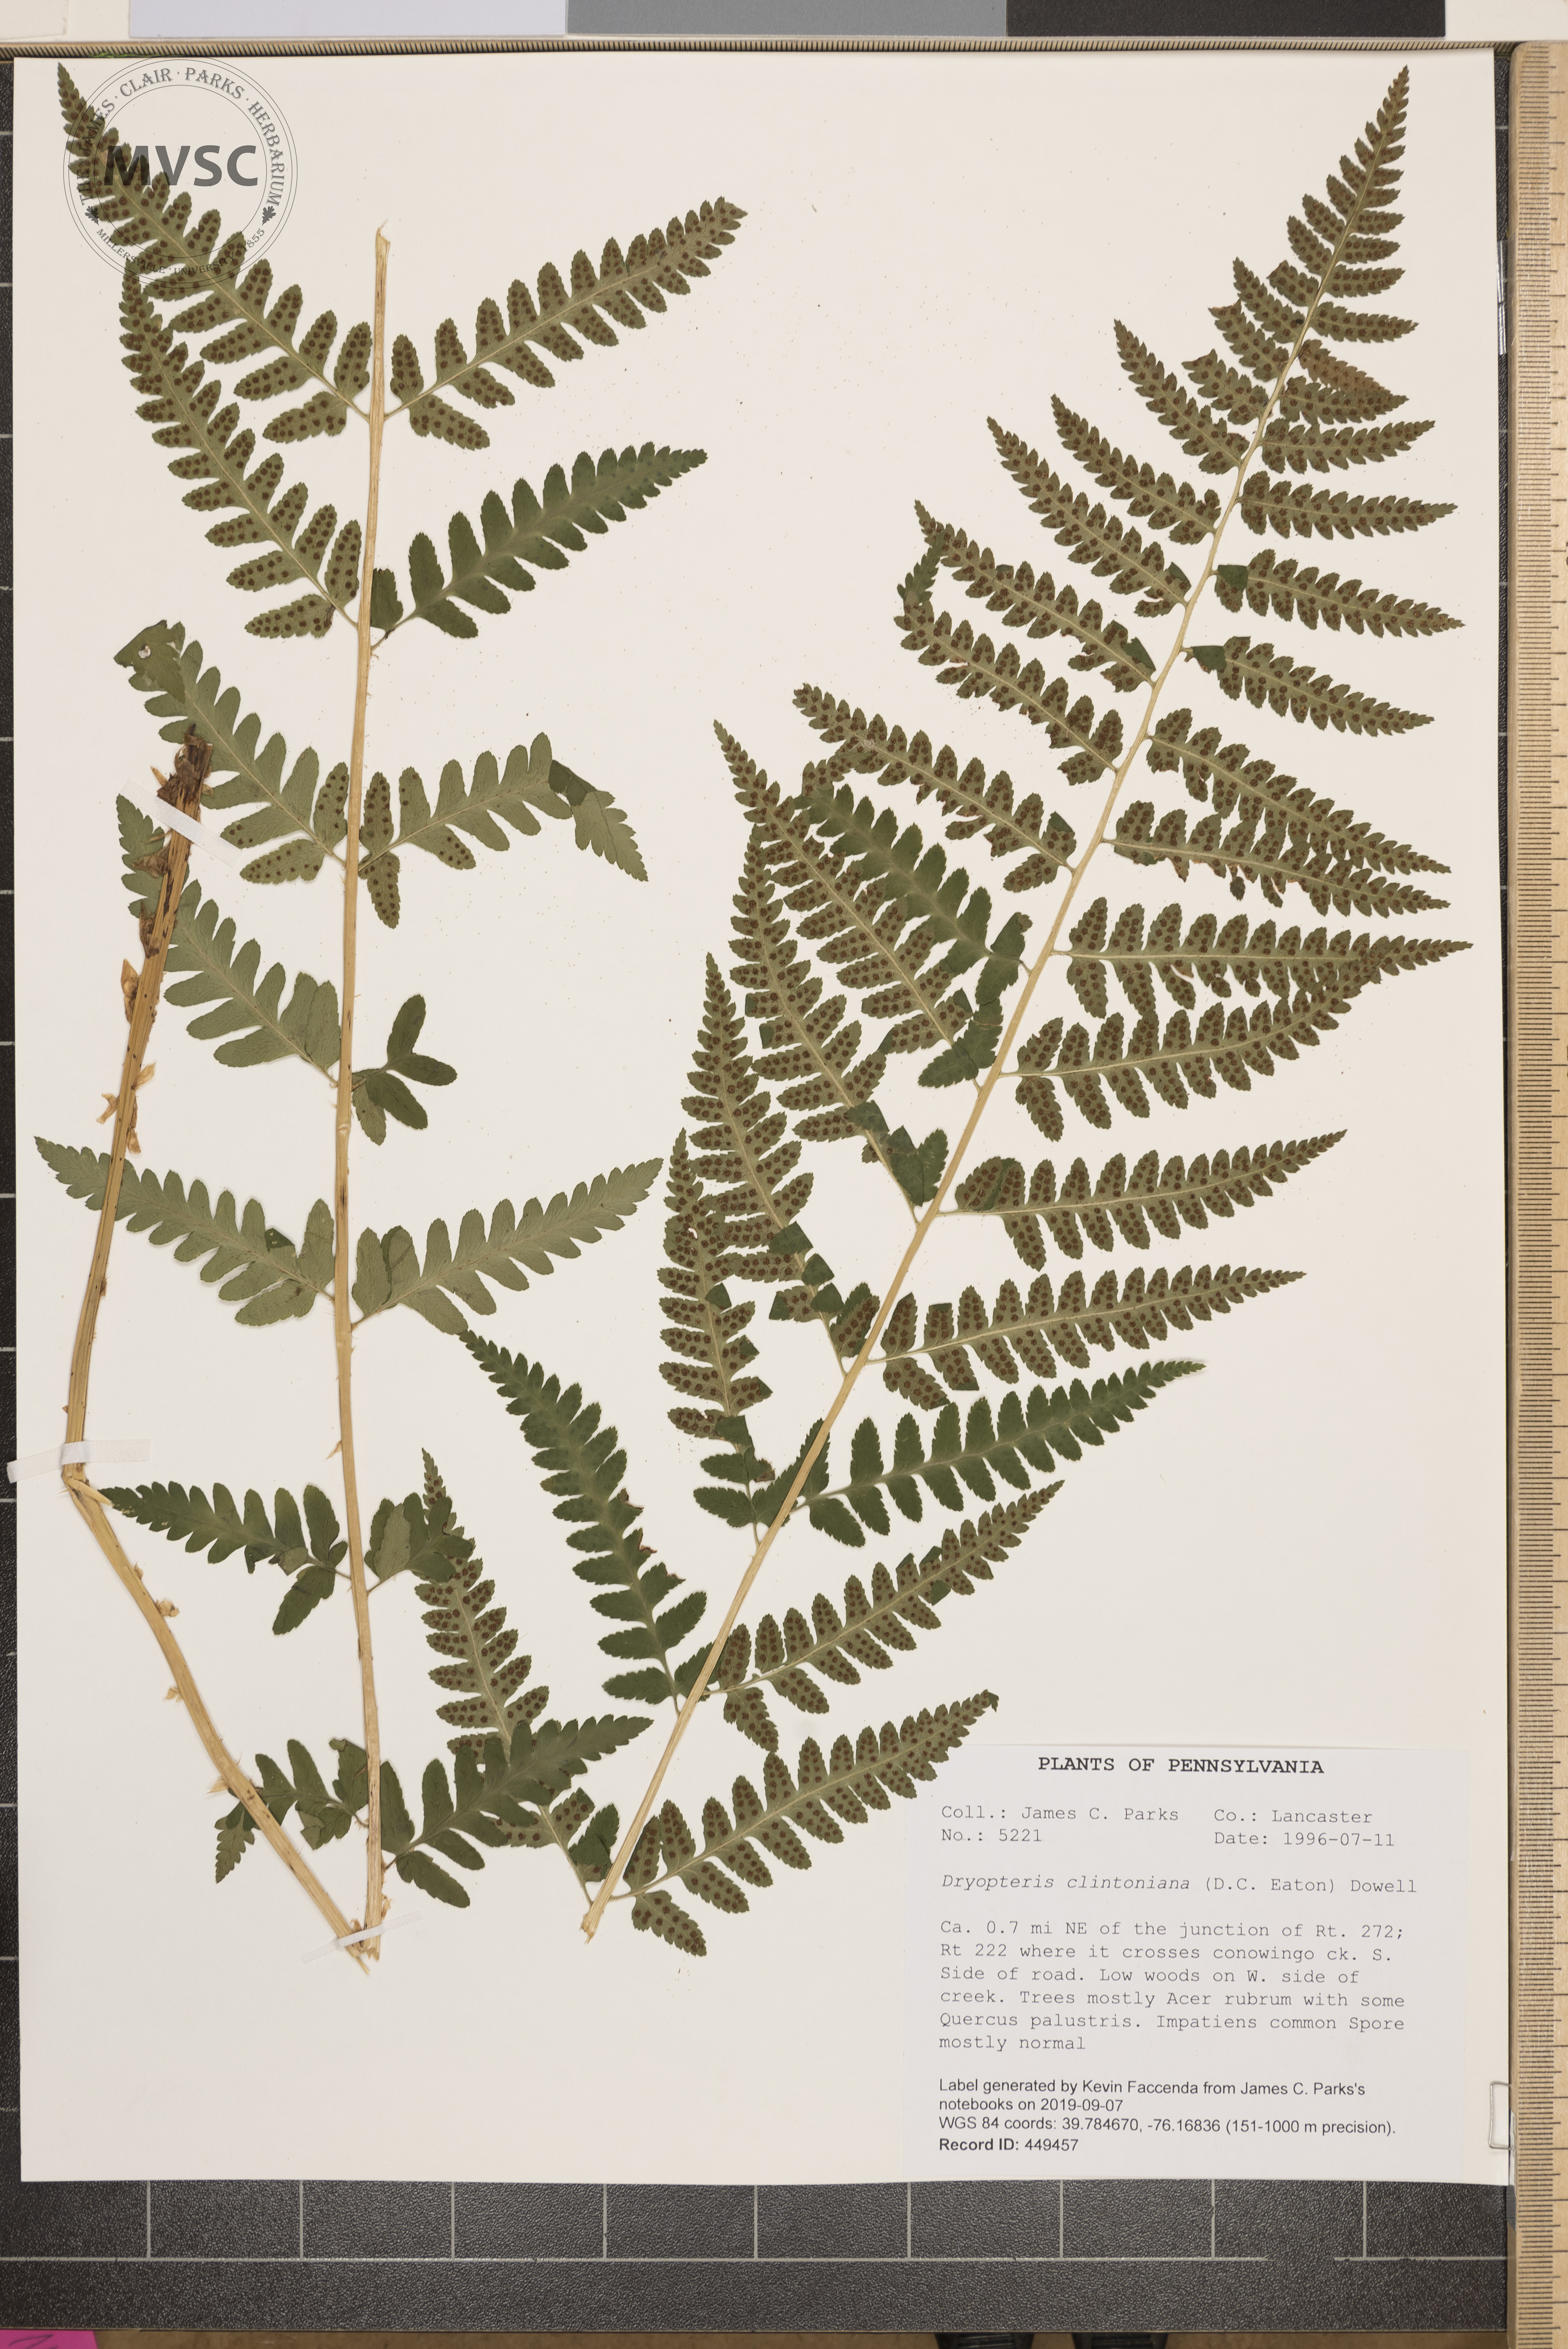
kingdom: Plantae
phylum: Tracheophyta
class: Polypodiopsida
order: Polypodiales
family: Dryopteridaceae
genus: Dryopteris
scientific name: Dryopteris clintoniana
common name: Clinton's wood fern
